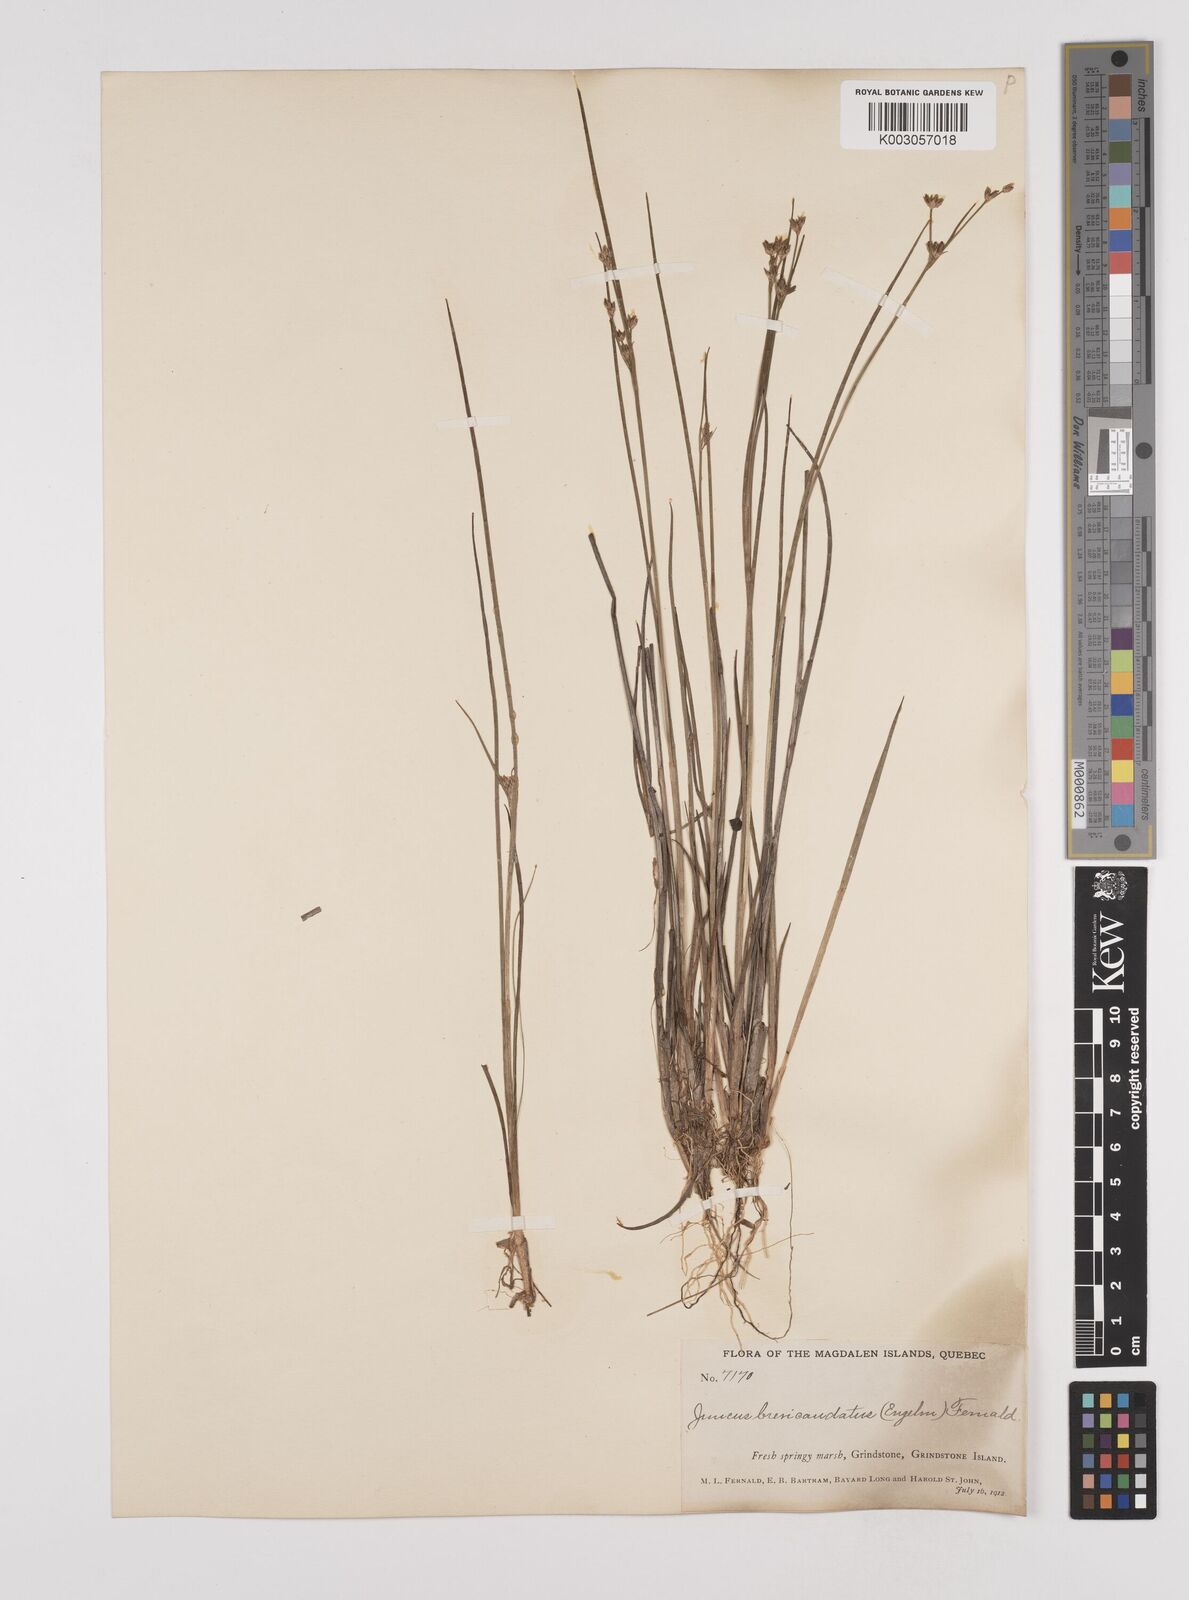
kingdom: Plantae
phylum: Tracheophyta
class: Liliopsida
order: Poales
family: Juncaceae
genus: Juncus
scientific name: Juncus canadensis
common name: Canada rush
